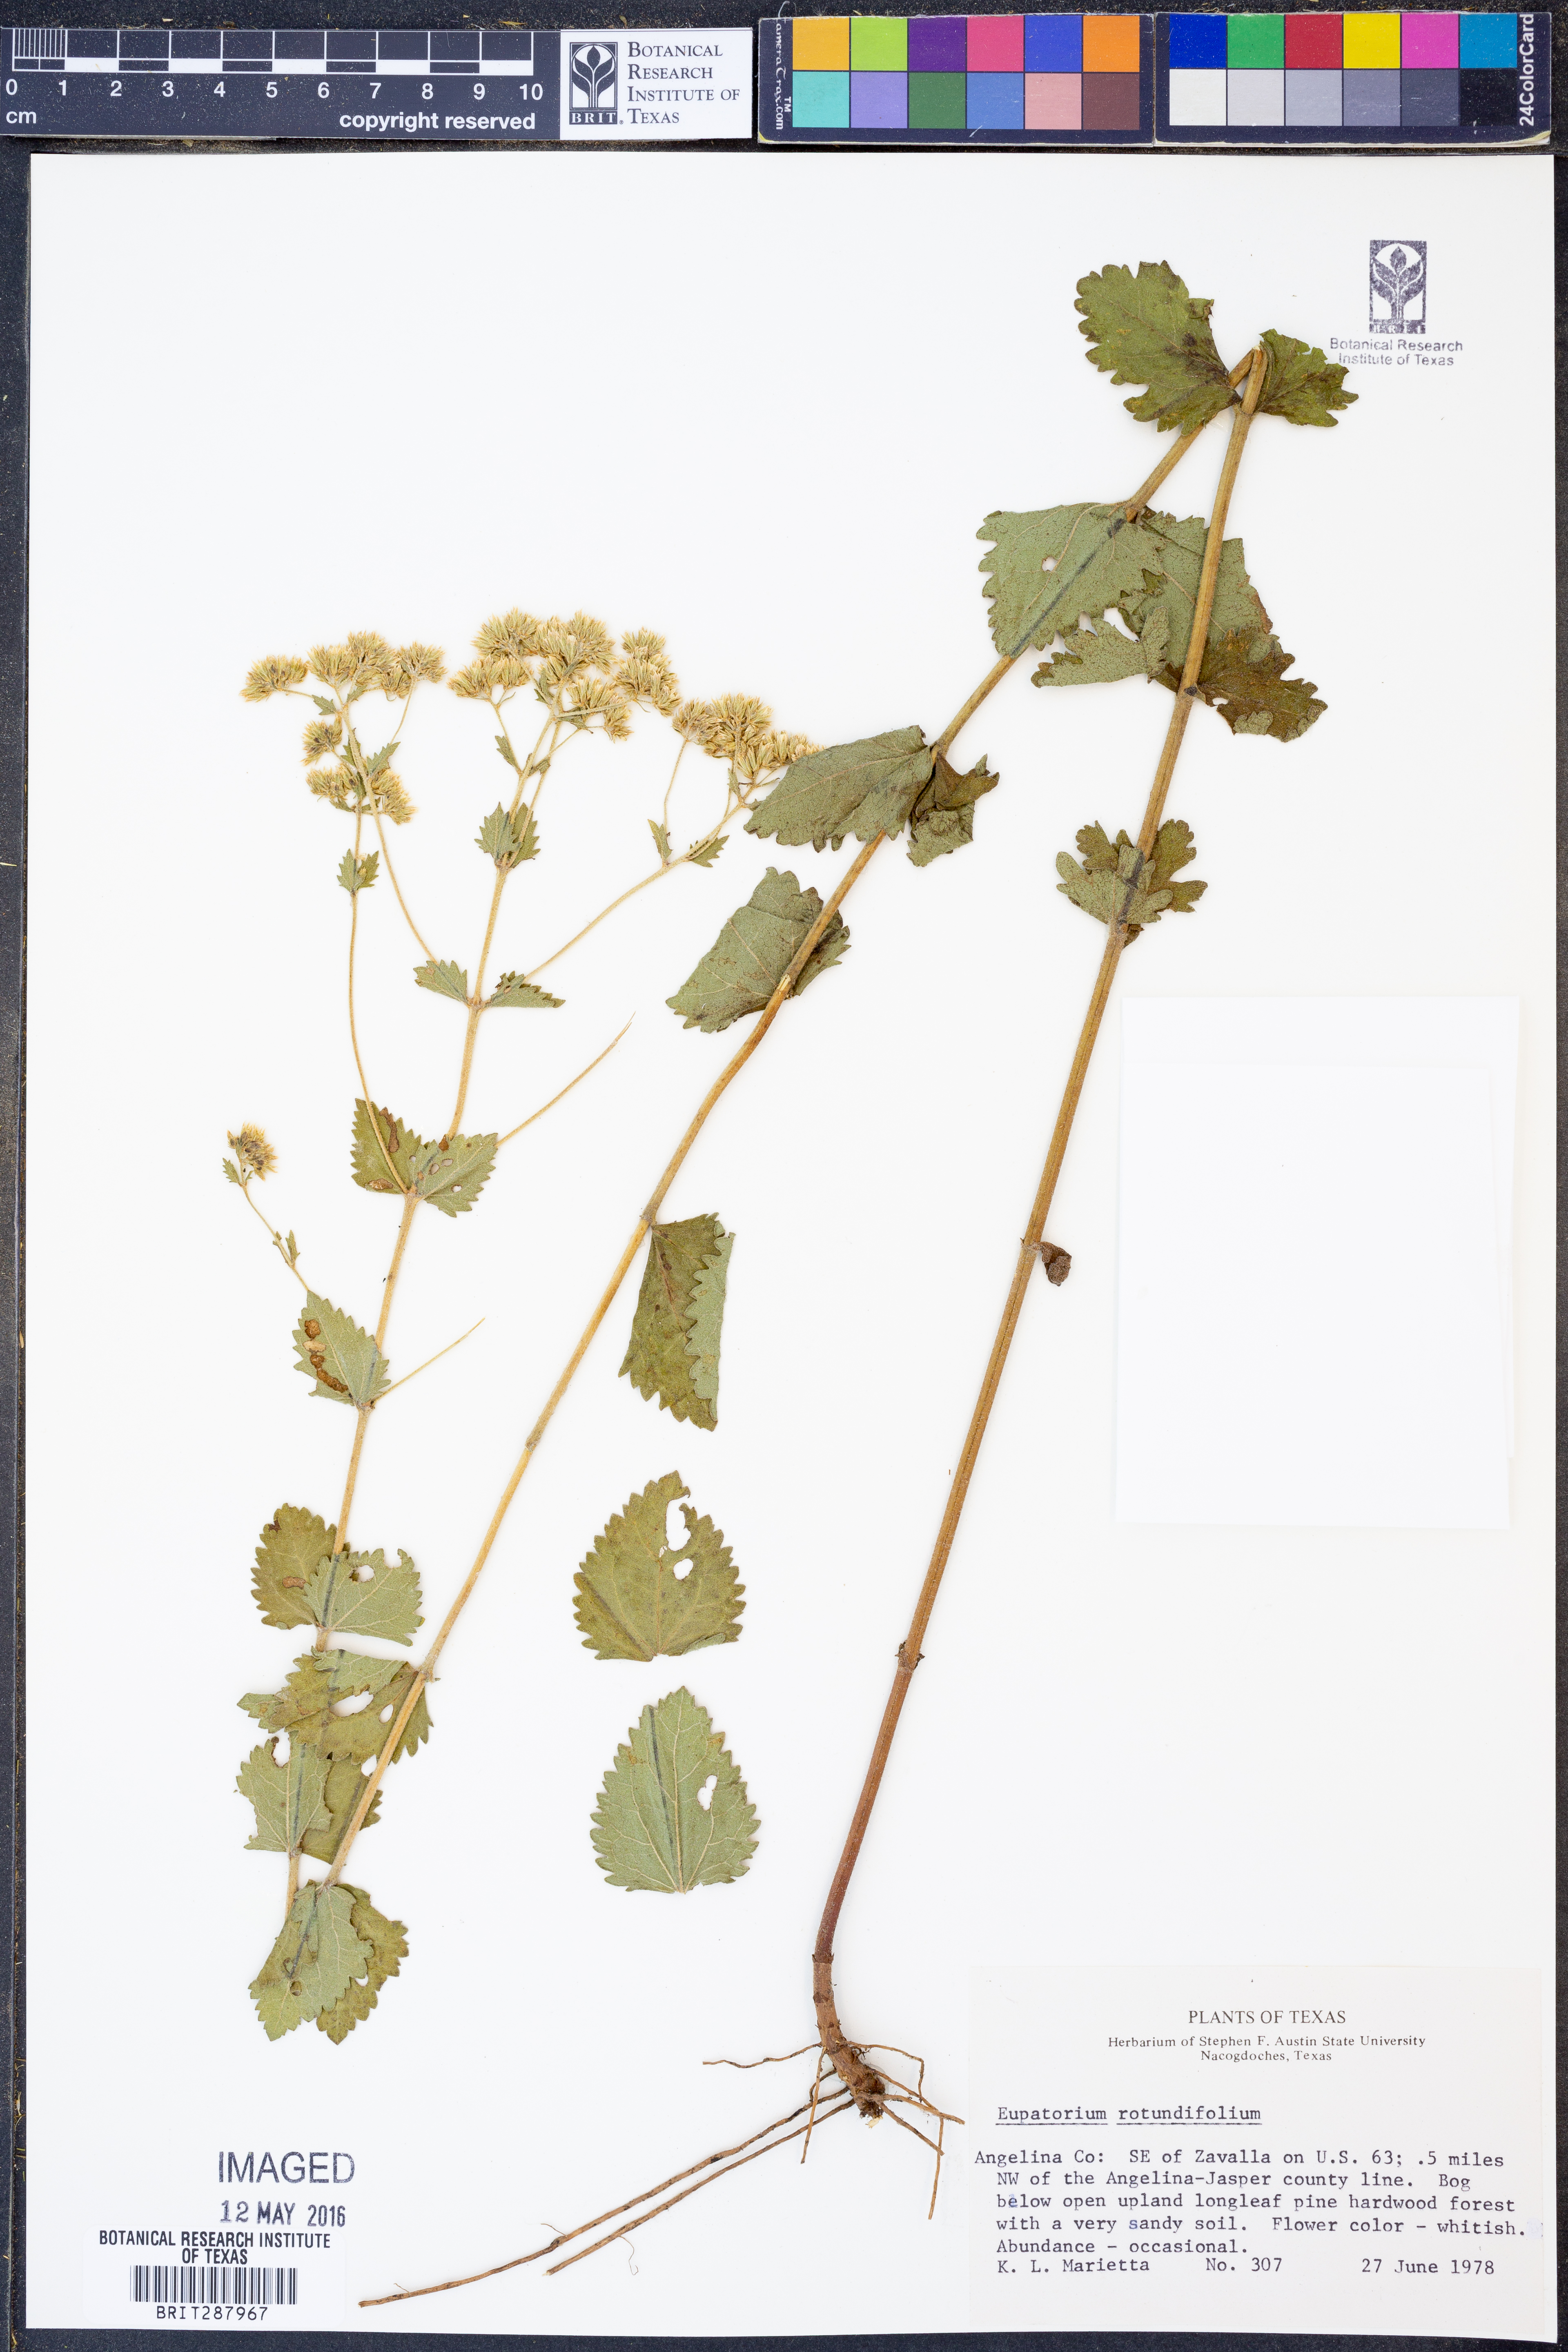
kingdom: Plantae
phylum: Tracheophyta
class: Magnoliopsida
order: Asterales
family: Asteraceae
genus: Eupatorium
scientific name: Eupatorium rotundifolium
